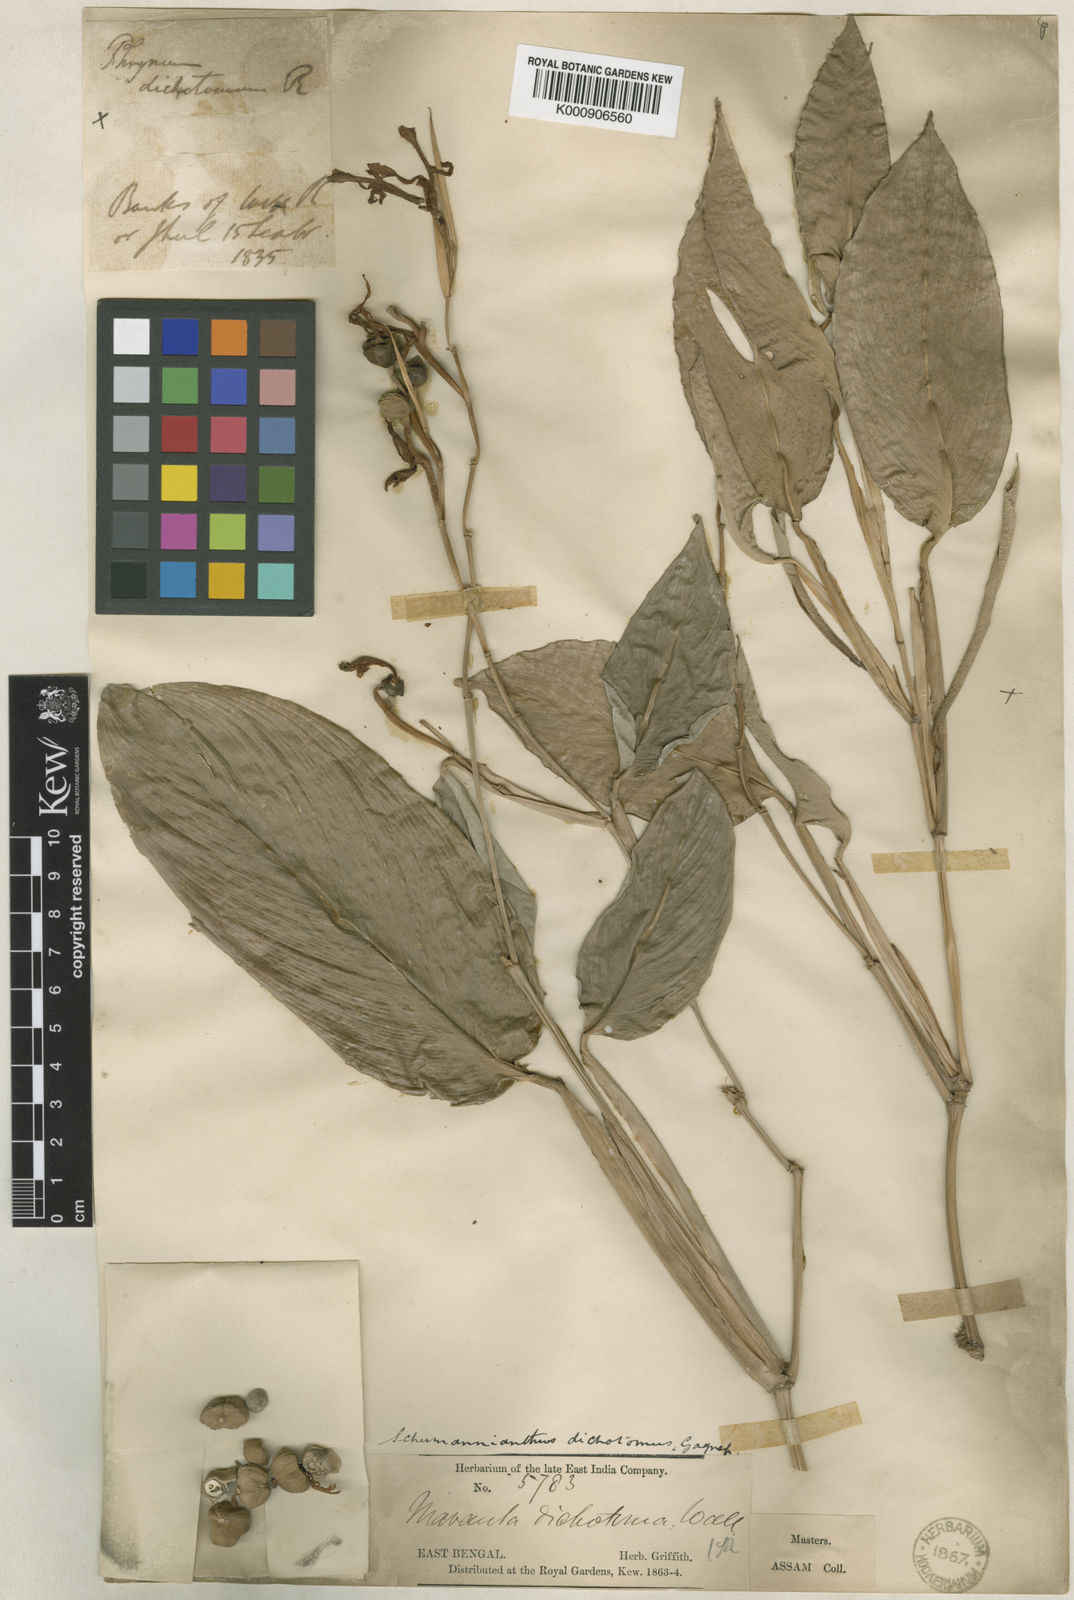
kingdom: Plantae
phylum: Tracheophyta
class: Liliopsida
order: Zingiberales
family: Marantaceae
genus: Schumannianthus
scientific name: Schumannianthus benthamianus
